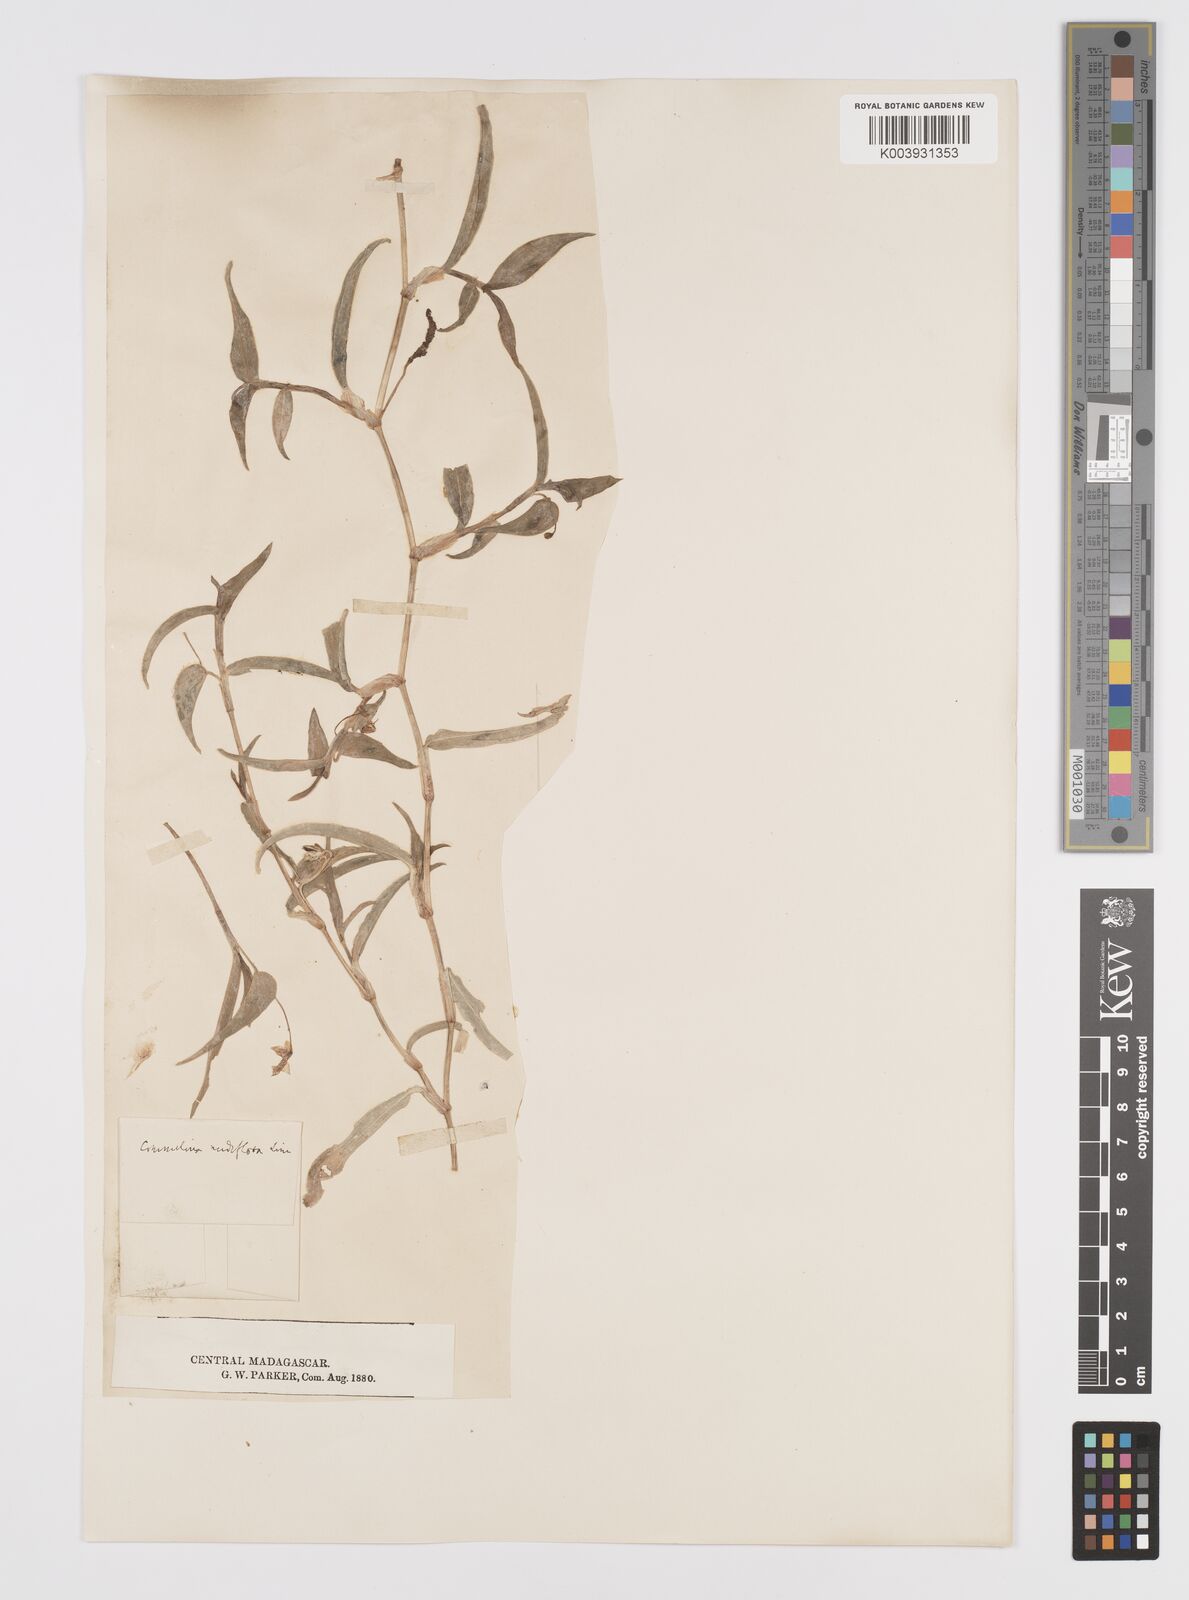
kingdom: Plantae
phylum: Tracheophyta
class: Liliopsida
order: Commelinales
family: Commelinaceae
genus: Murdannia
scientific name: Murdannia nudiflora
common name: Nakedstem dewflower
